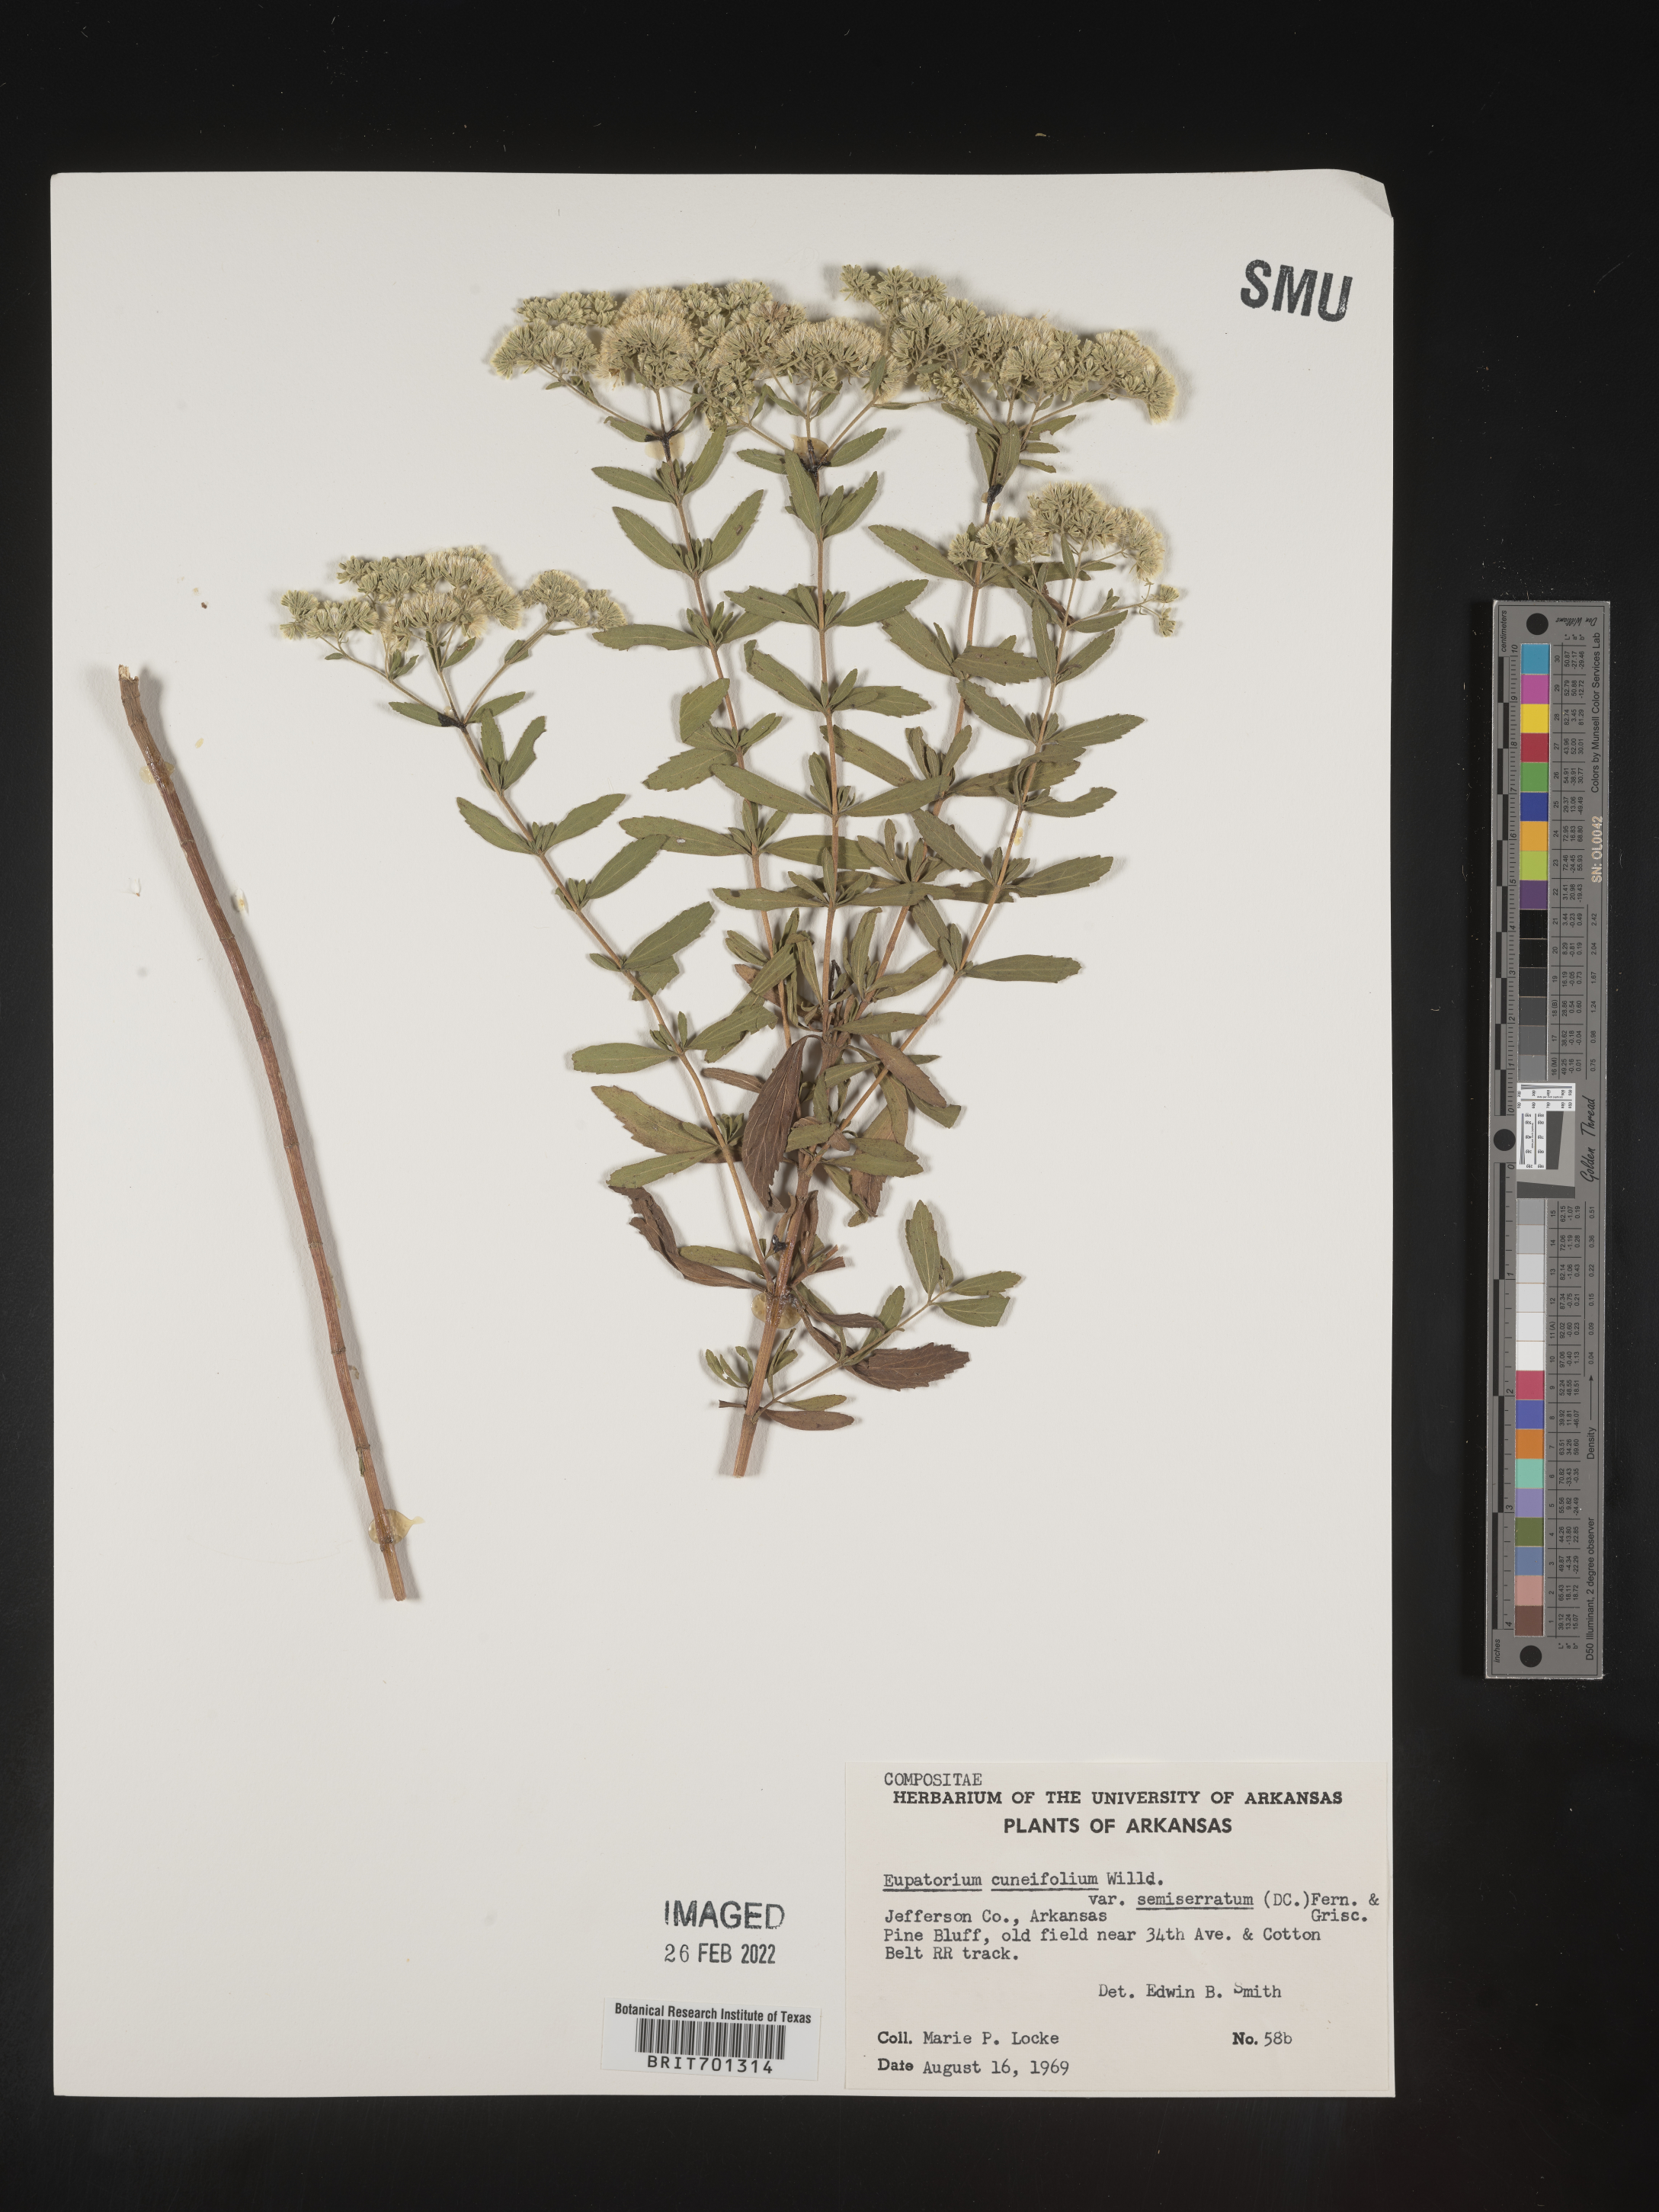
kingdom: Plantae
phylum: Tracheophyta
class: Magnoliopsida
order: Asterales
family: Asteraceae
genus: Eupatorium
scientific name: Eupatorium linearifolium
